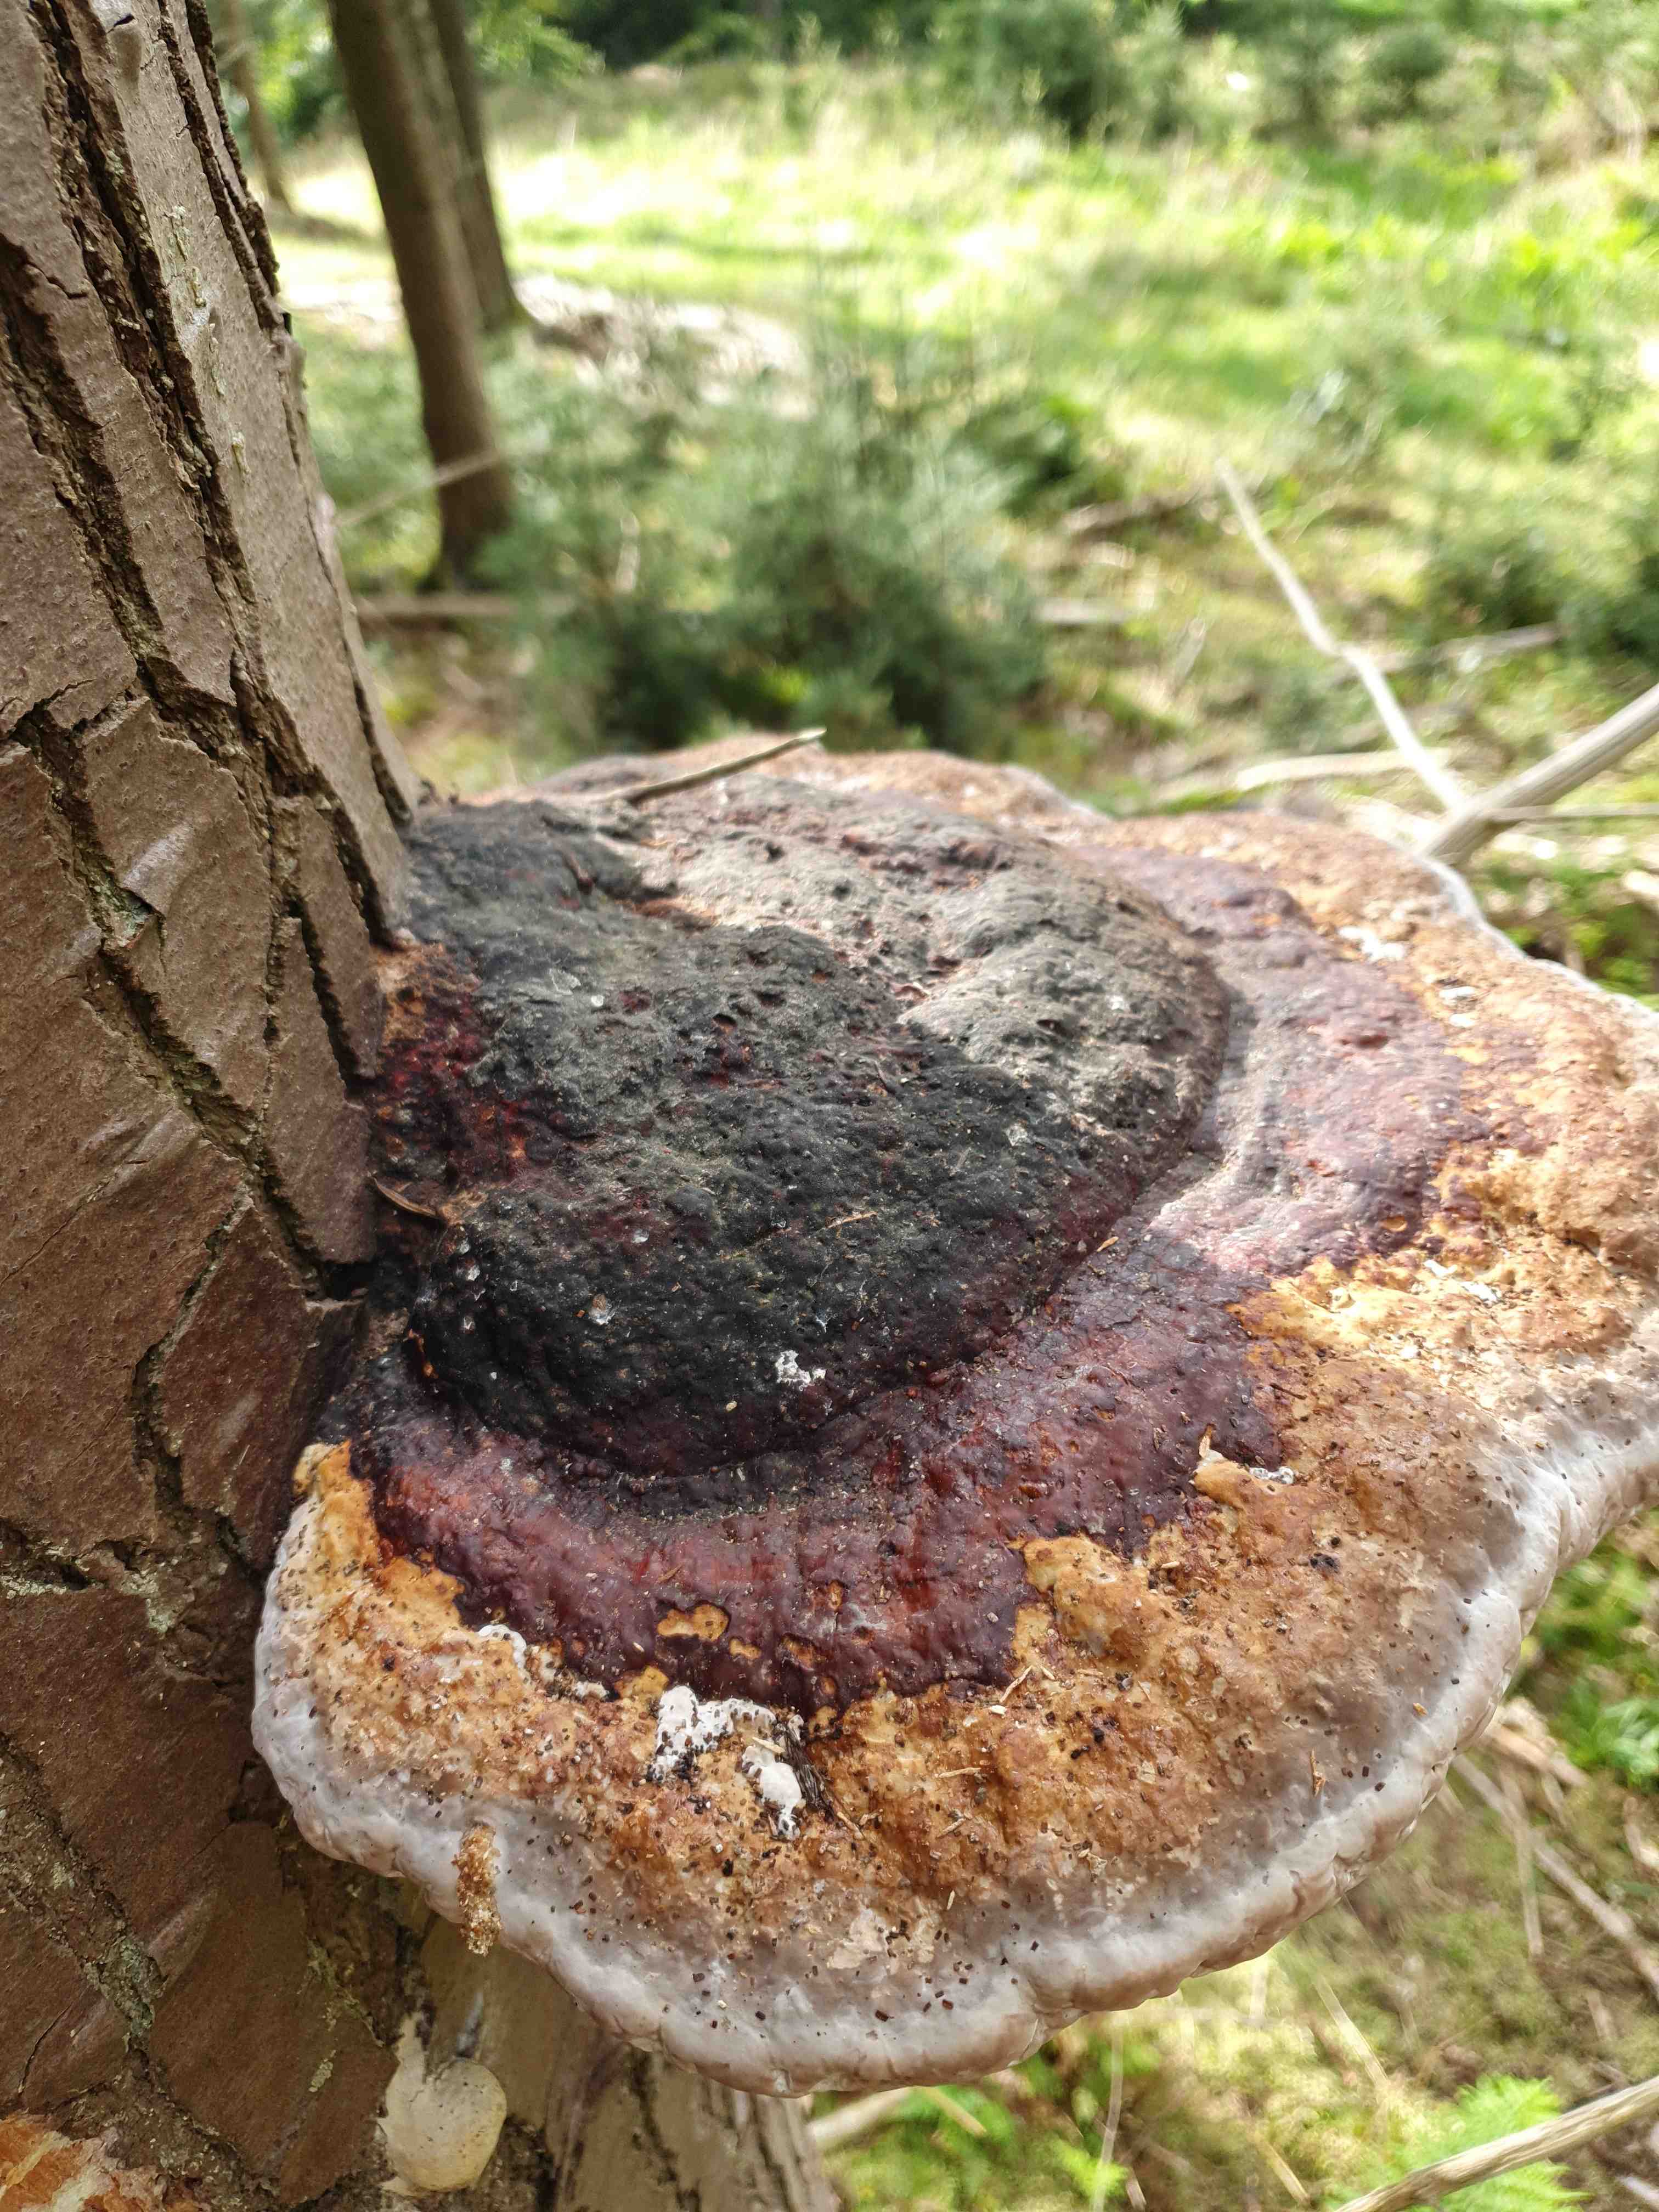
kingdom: Fungi
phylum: Basidiomycota
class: Agaricomycetes
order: Polyporales
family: Fomitopsidaceae
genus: Fomitopsis
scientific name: Fomitopsis pinicola
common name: randbæltet hovporesvamp
